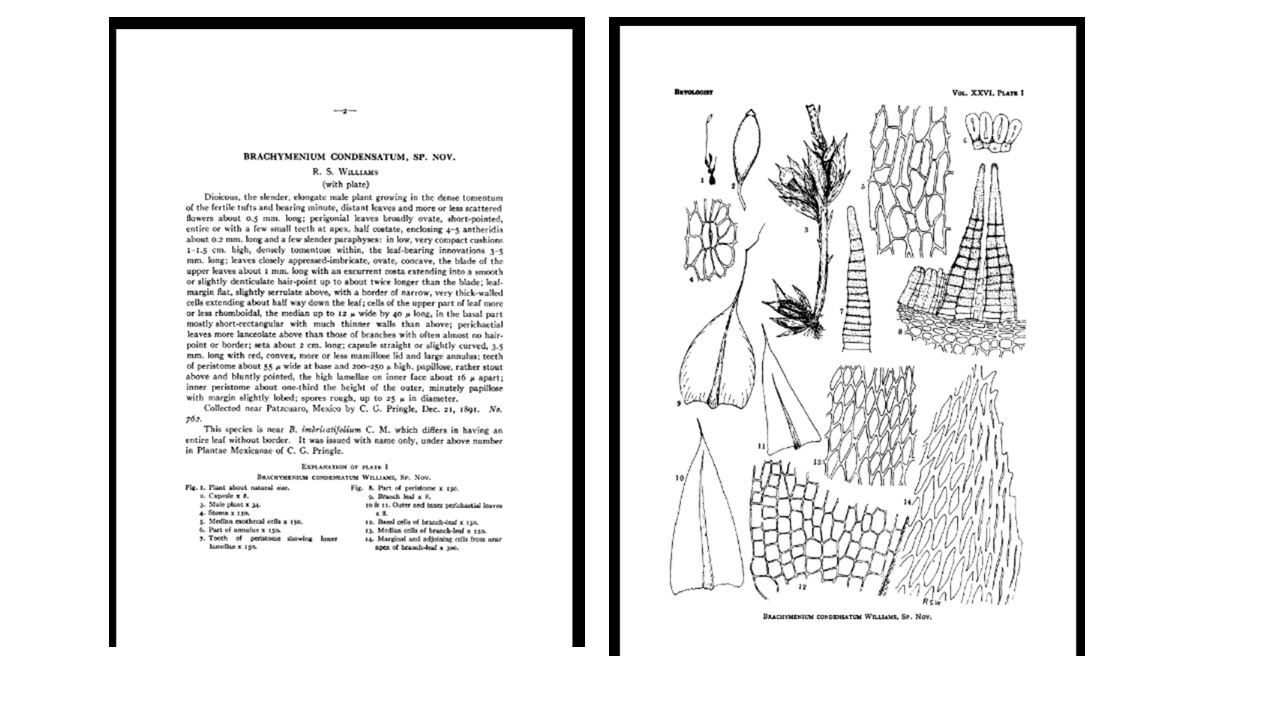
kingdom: Plantae
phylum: Bryophyta
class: Bryopsida
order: Bryales
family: Bryaceae
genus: Leptostomopsis
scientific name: Leptostomopsis systylia
